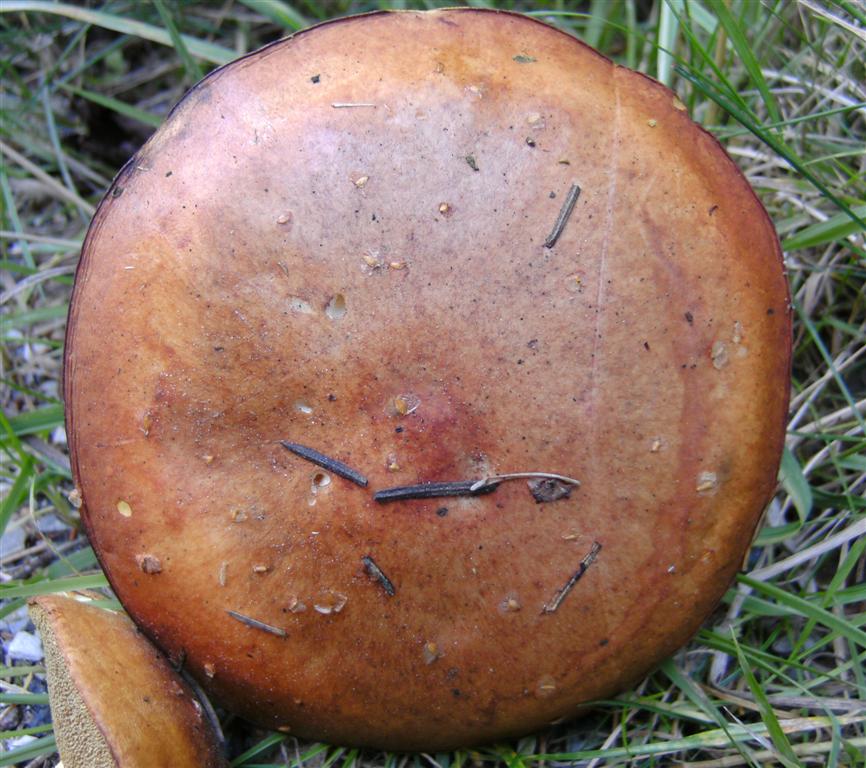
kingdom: Fungi
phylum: Basidiomycota
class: Agaricomycetes
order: Boletales
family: Suillaceae
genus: Suillus
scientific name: Suillus collinitus
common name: rosafodet slimrørhat
